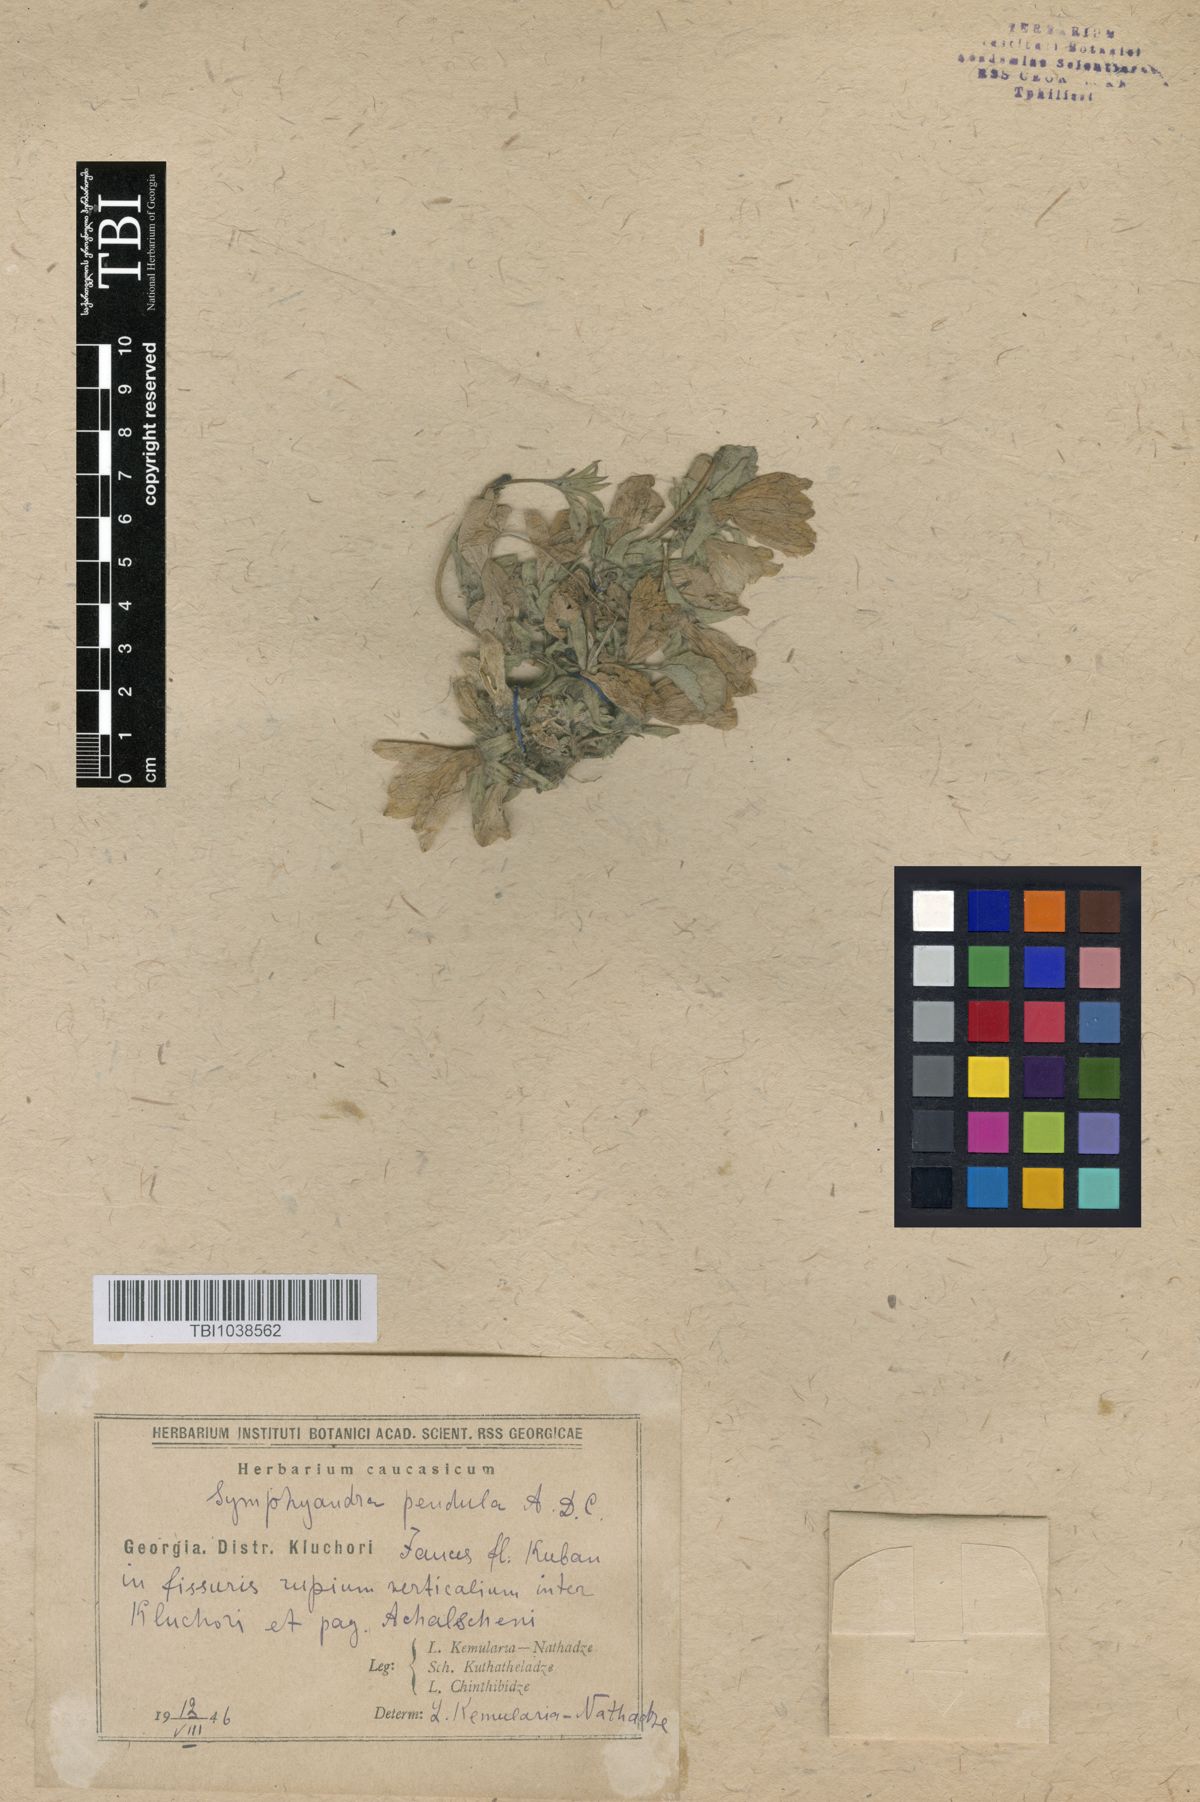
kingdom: Plantae
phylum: Tracheophyta
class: Magnoliopsida
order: Asterales
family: Campanulaceae
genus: Campanula
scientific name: Campanula pendula
